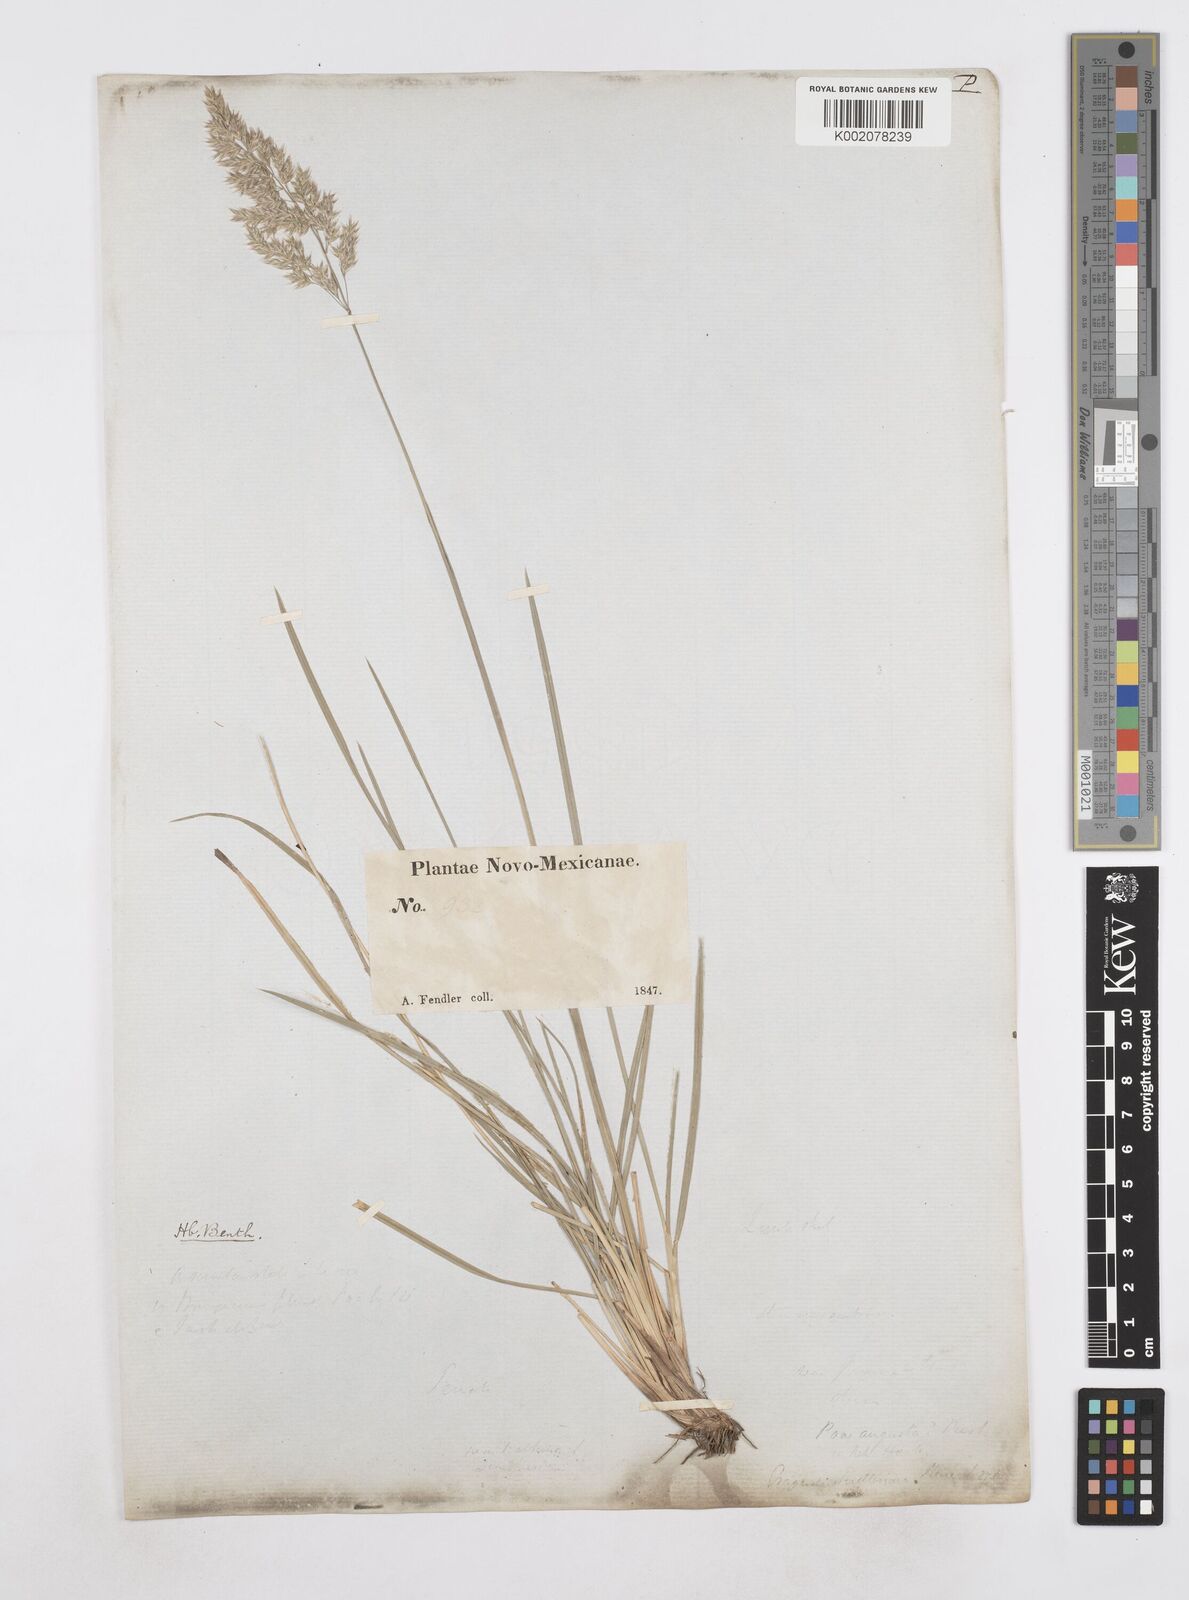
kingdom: Plantae
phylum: Tracheophyta
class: Liliopsida
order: Poales
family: Poaceae
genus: Poa
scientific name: Poa
